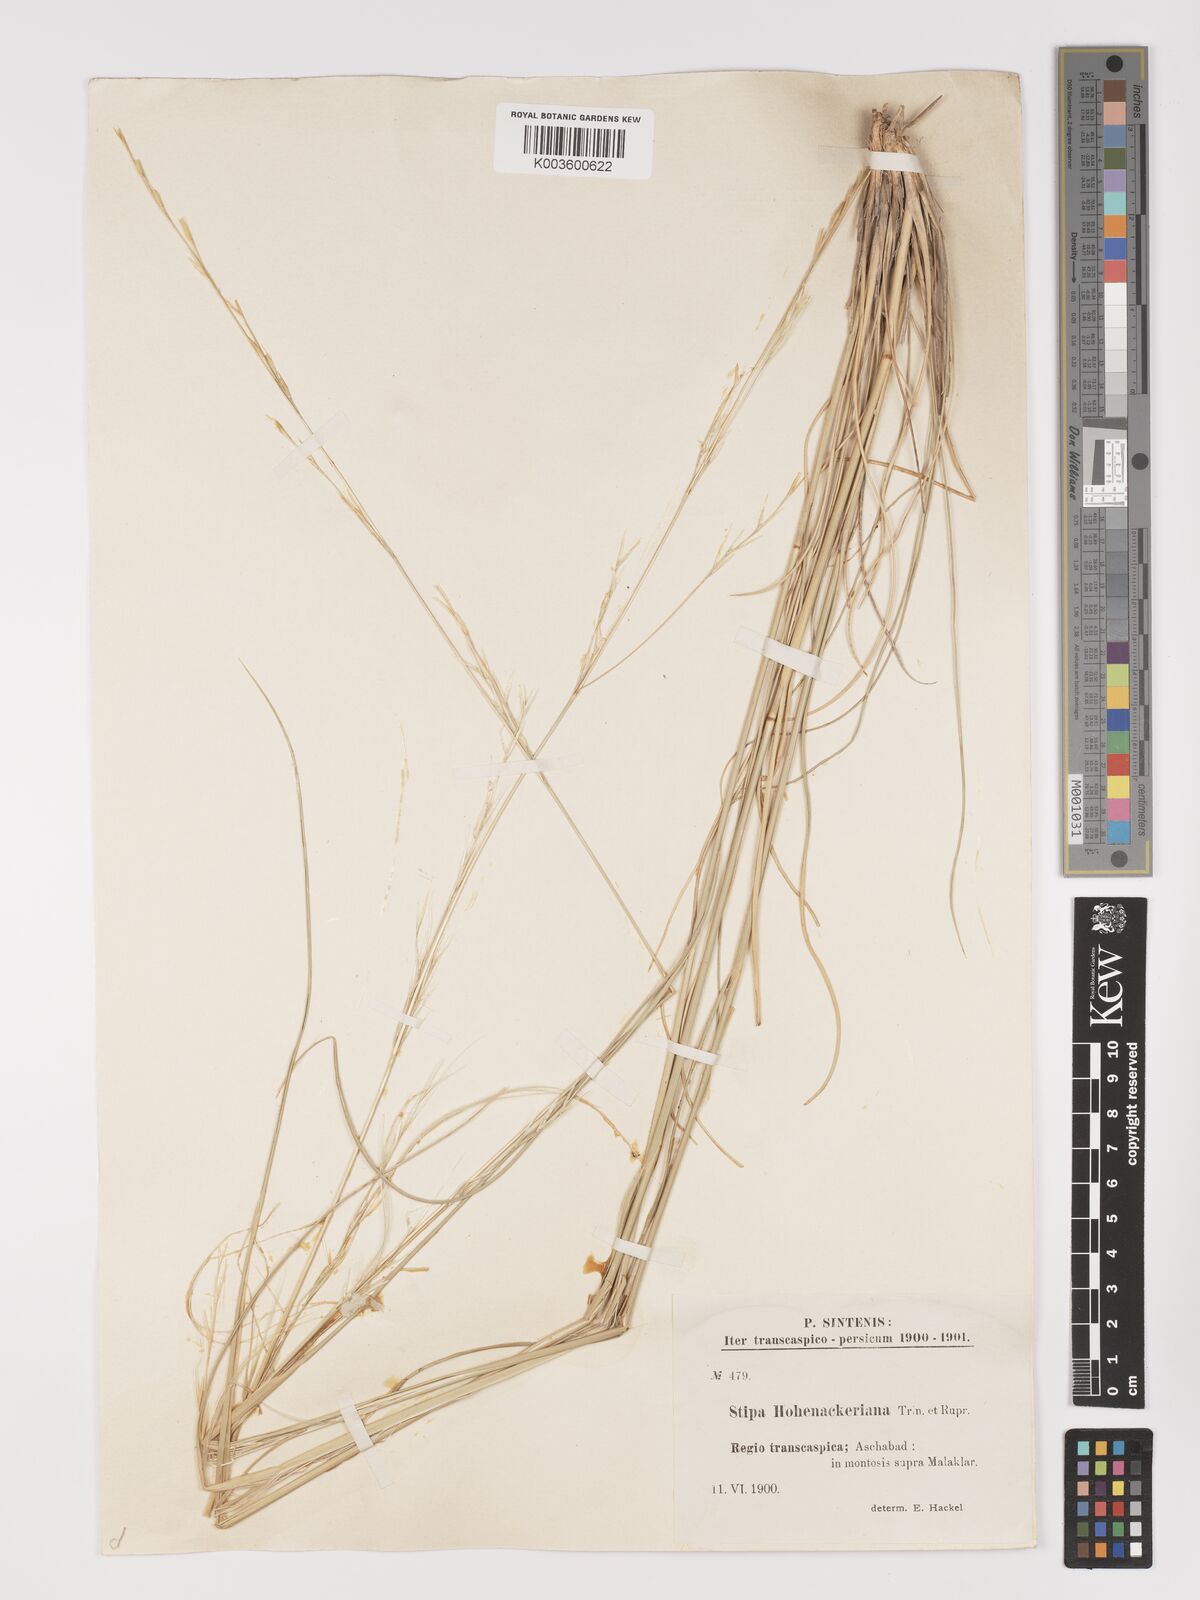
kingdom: Plantae
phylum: Tracheophyta
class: Liliopsida
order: Poales
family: Poaceae
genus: Stipa
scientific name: Stipa hohenackeriana
